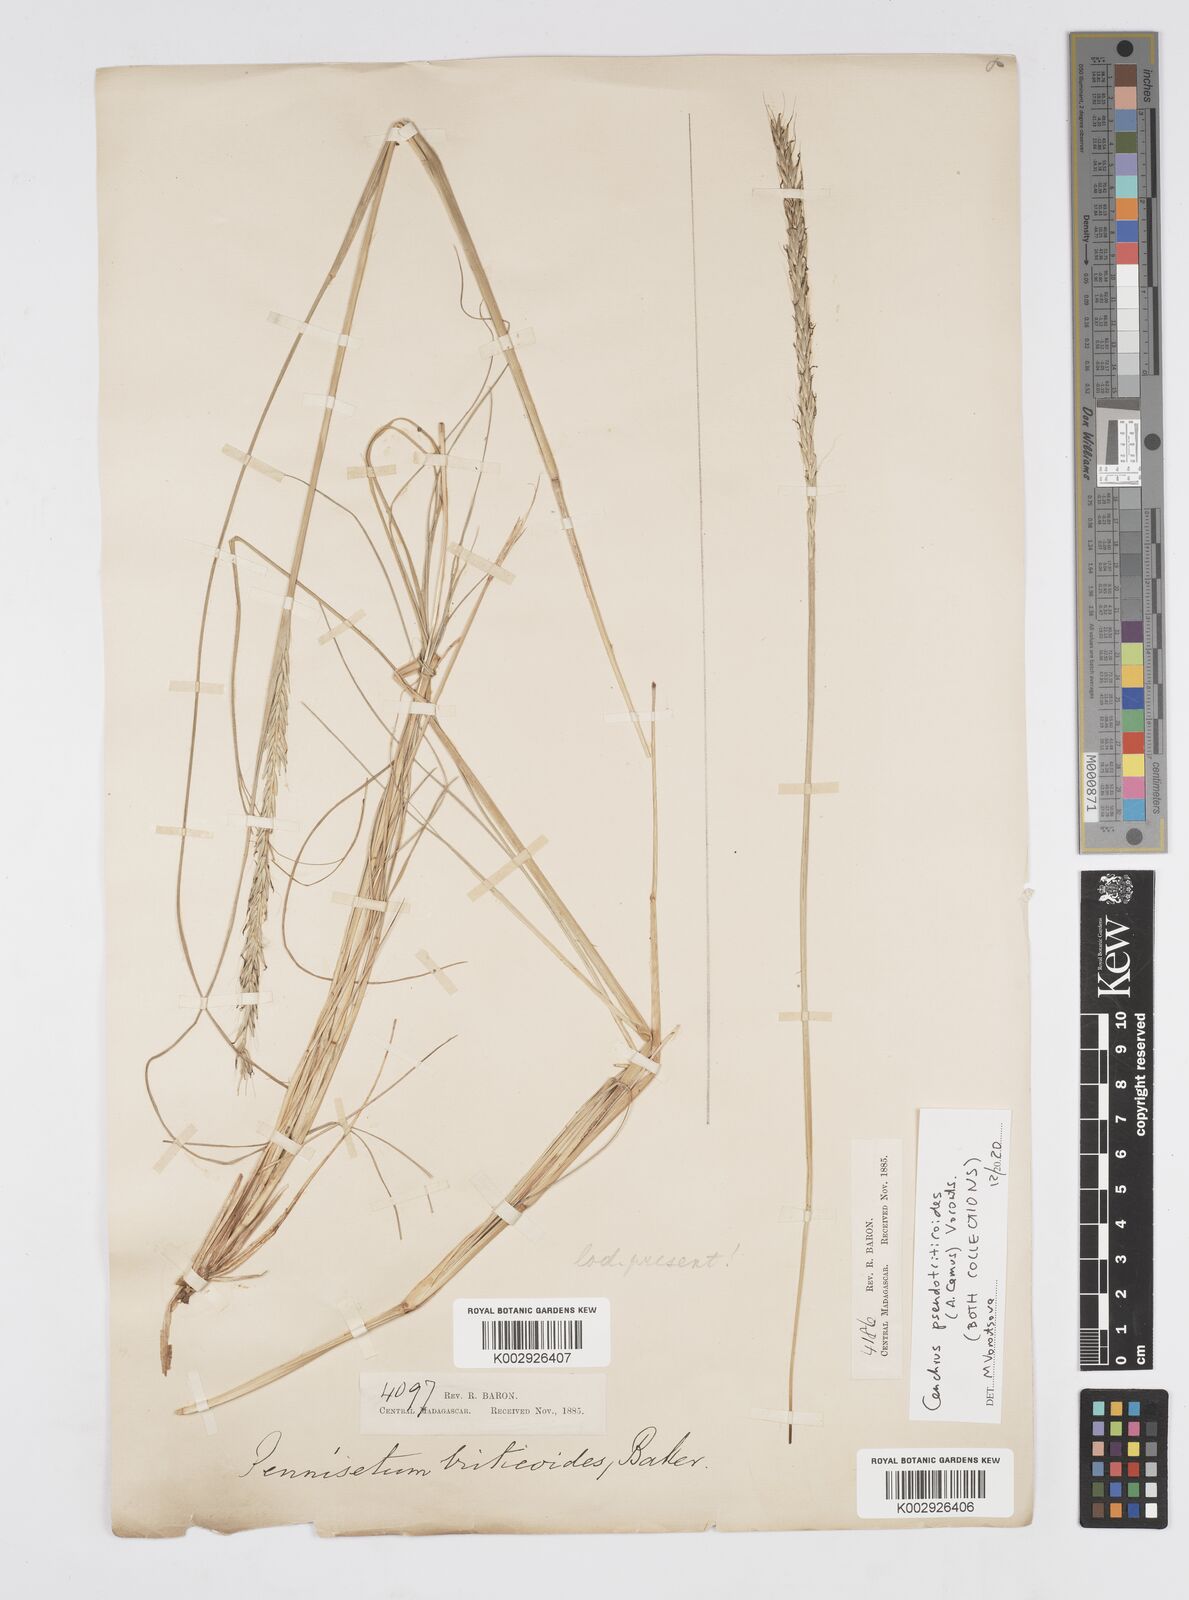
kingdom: Plantae
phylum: Tracheophyta
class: Liliopsida
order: Poales
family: Poaceae
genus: Cenchrus
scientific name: Cenchrus pseudotriticoides
